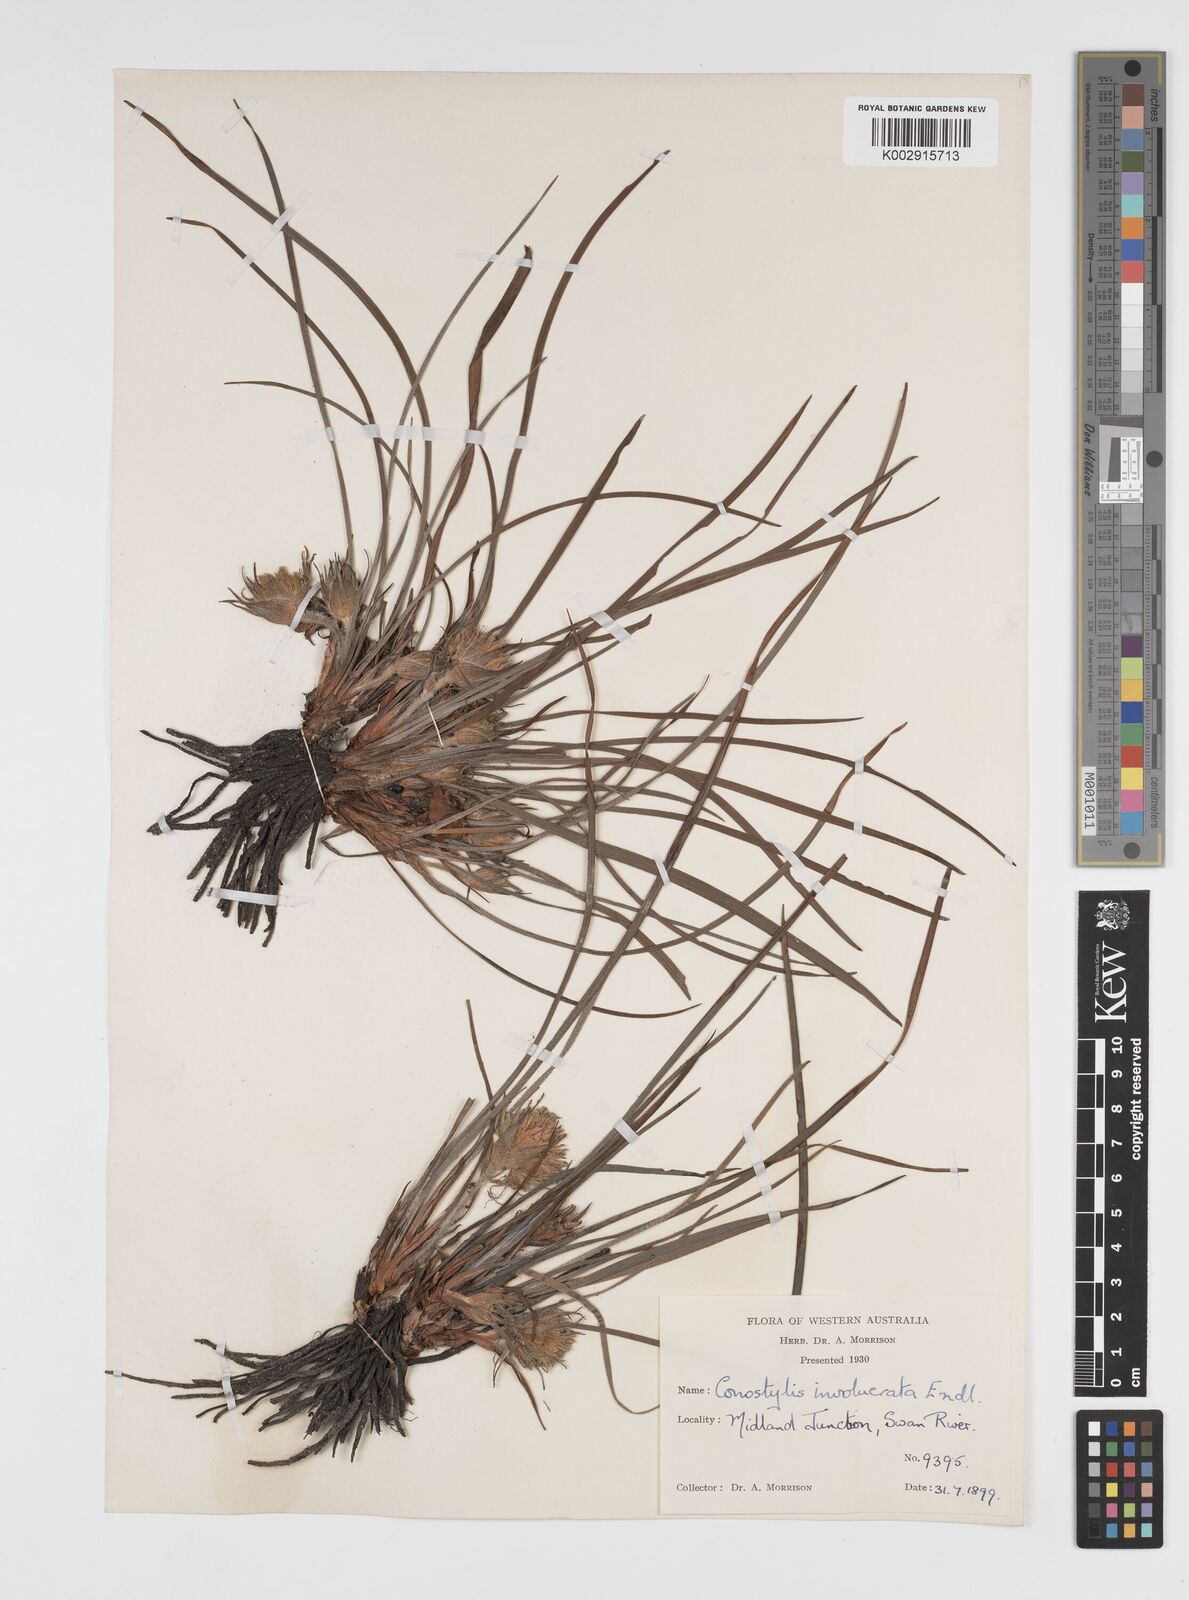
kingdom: Plantae
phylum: Tracheophyta
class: Liliopsida
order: Commelinales
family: Haemodoraceae
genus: Conostylis
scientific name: Conostylis juncea
